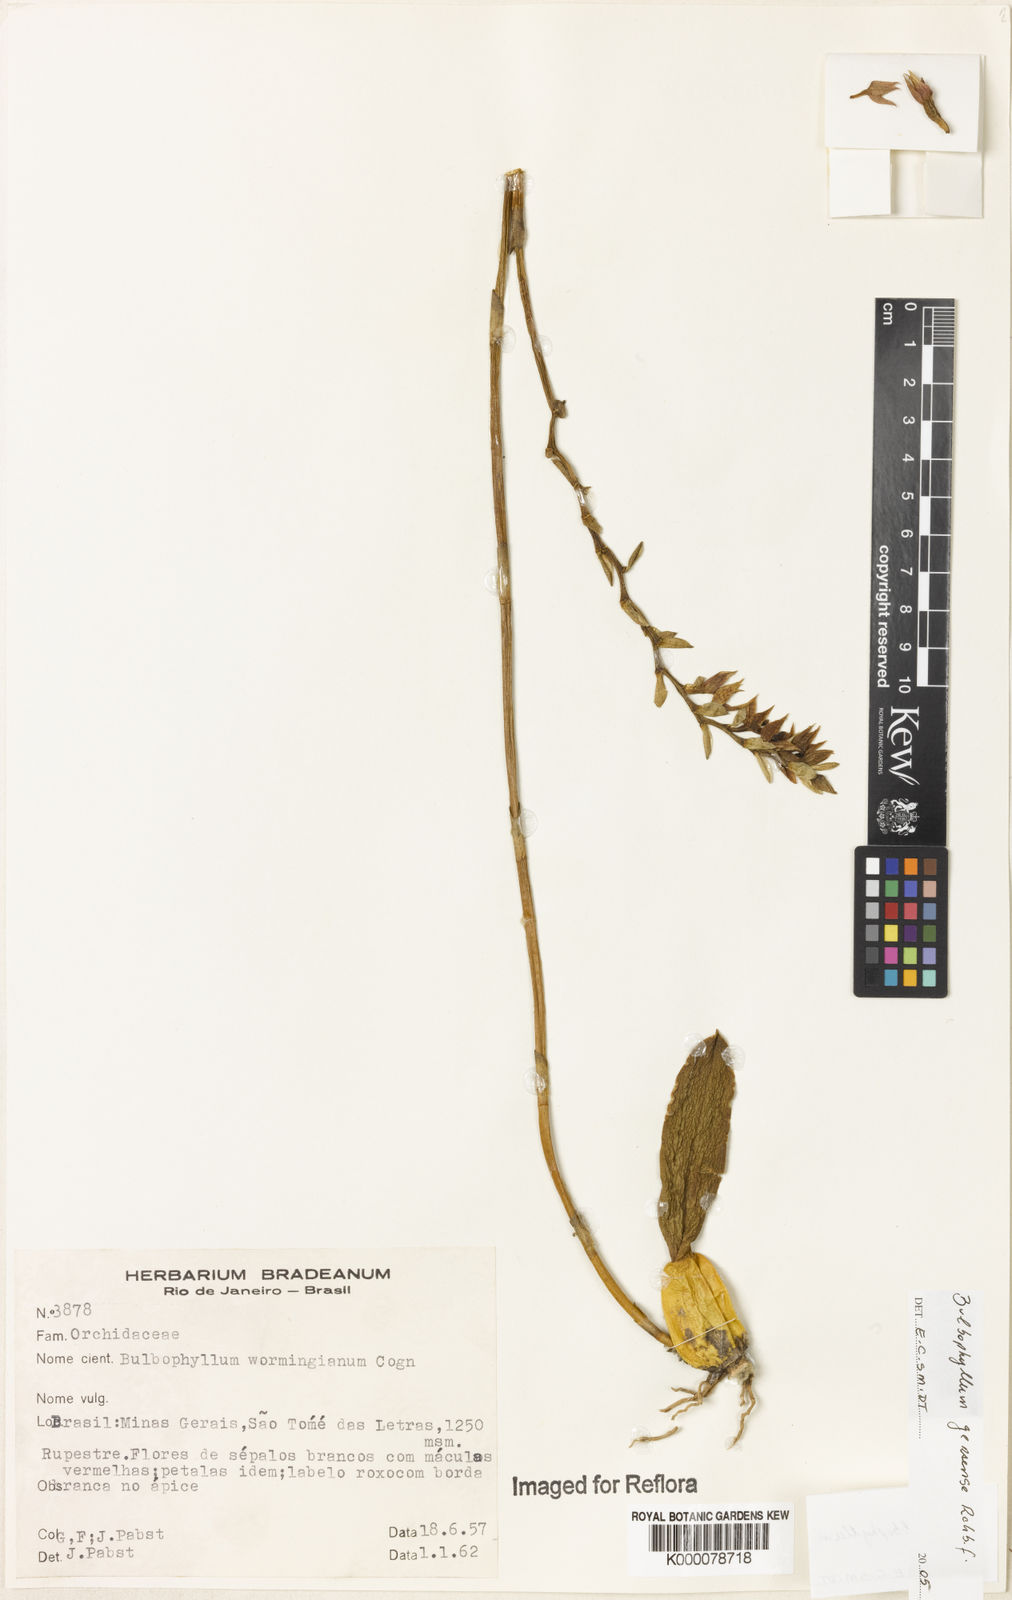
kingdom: Plantae
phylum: Tracheophyta
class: Liliopsida
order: Asparagales
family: Orchidaceae
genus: Bulbophyllum
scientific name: Bulbophyllum exaltatum
